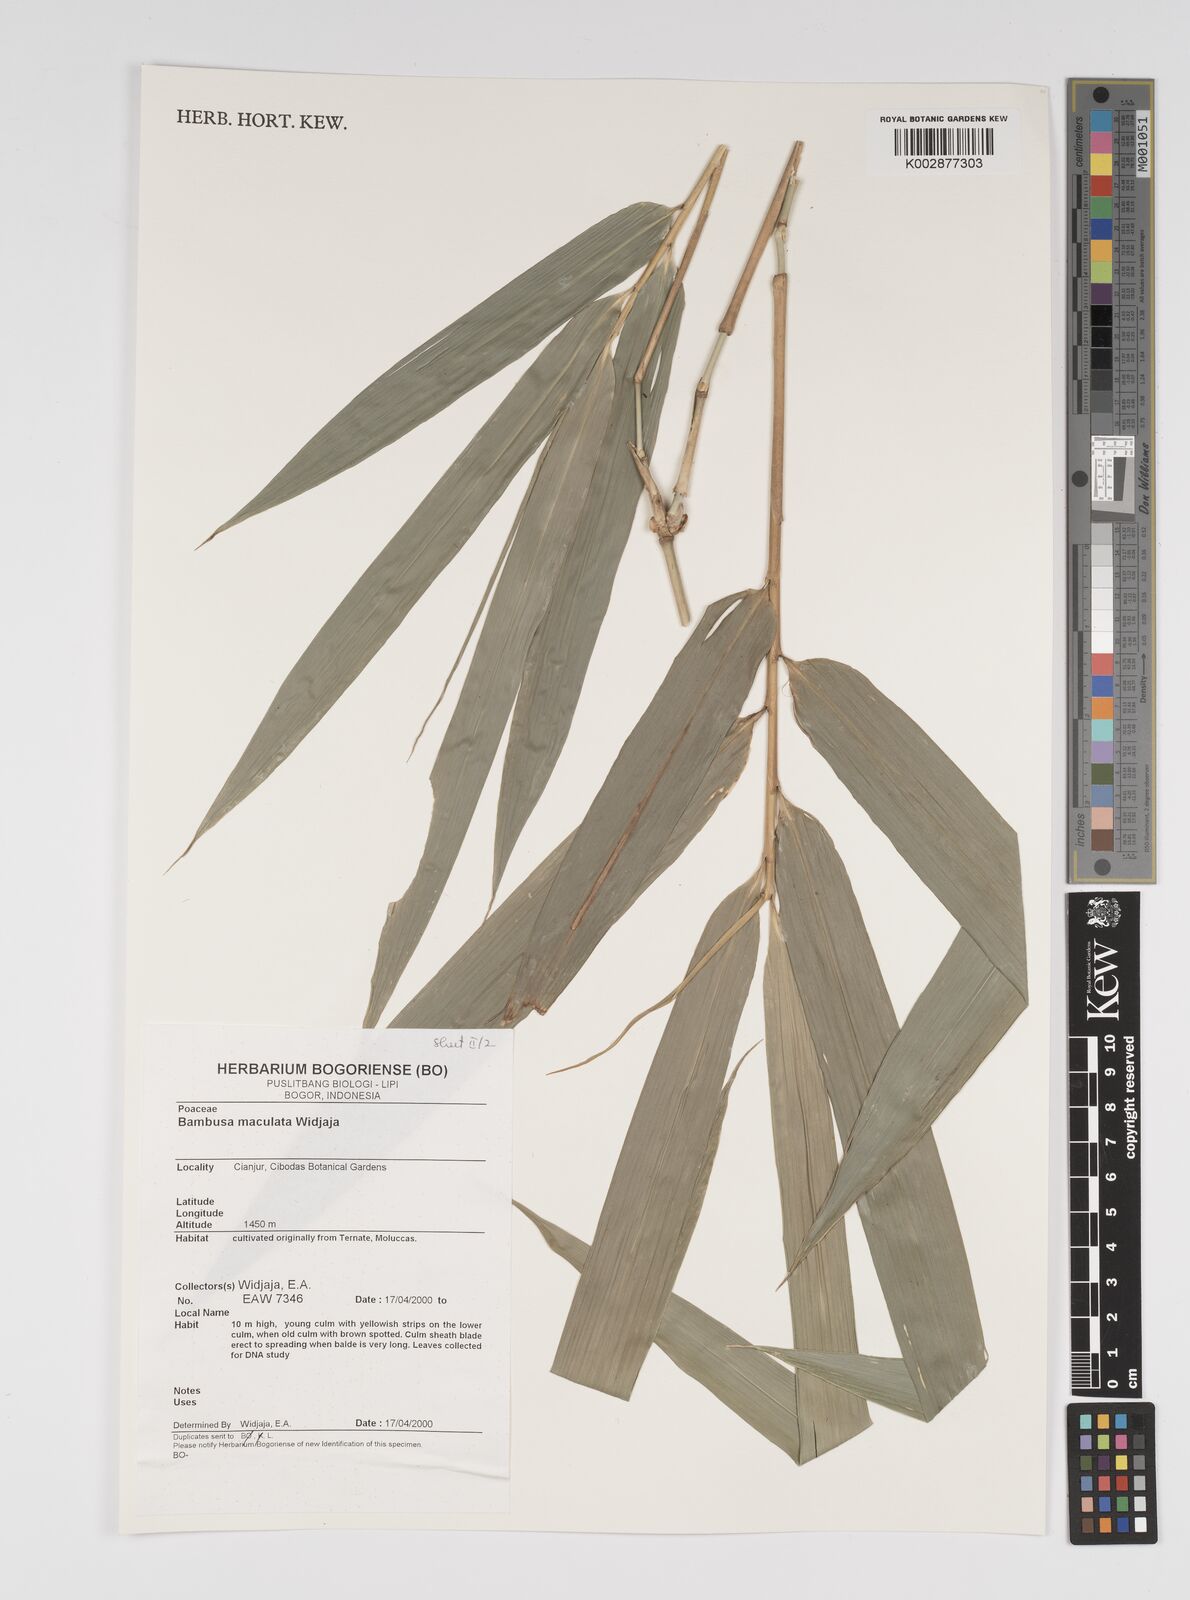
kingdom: Plantae
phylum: Tracheophyta
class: Liliopsida
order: Poales
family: Poaceae
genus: Bambusa
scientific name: Bambusa maculata
